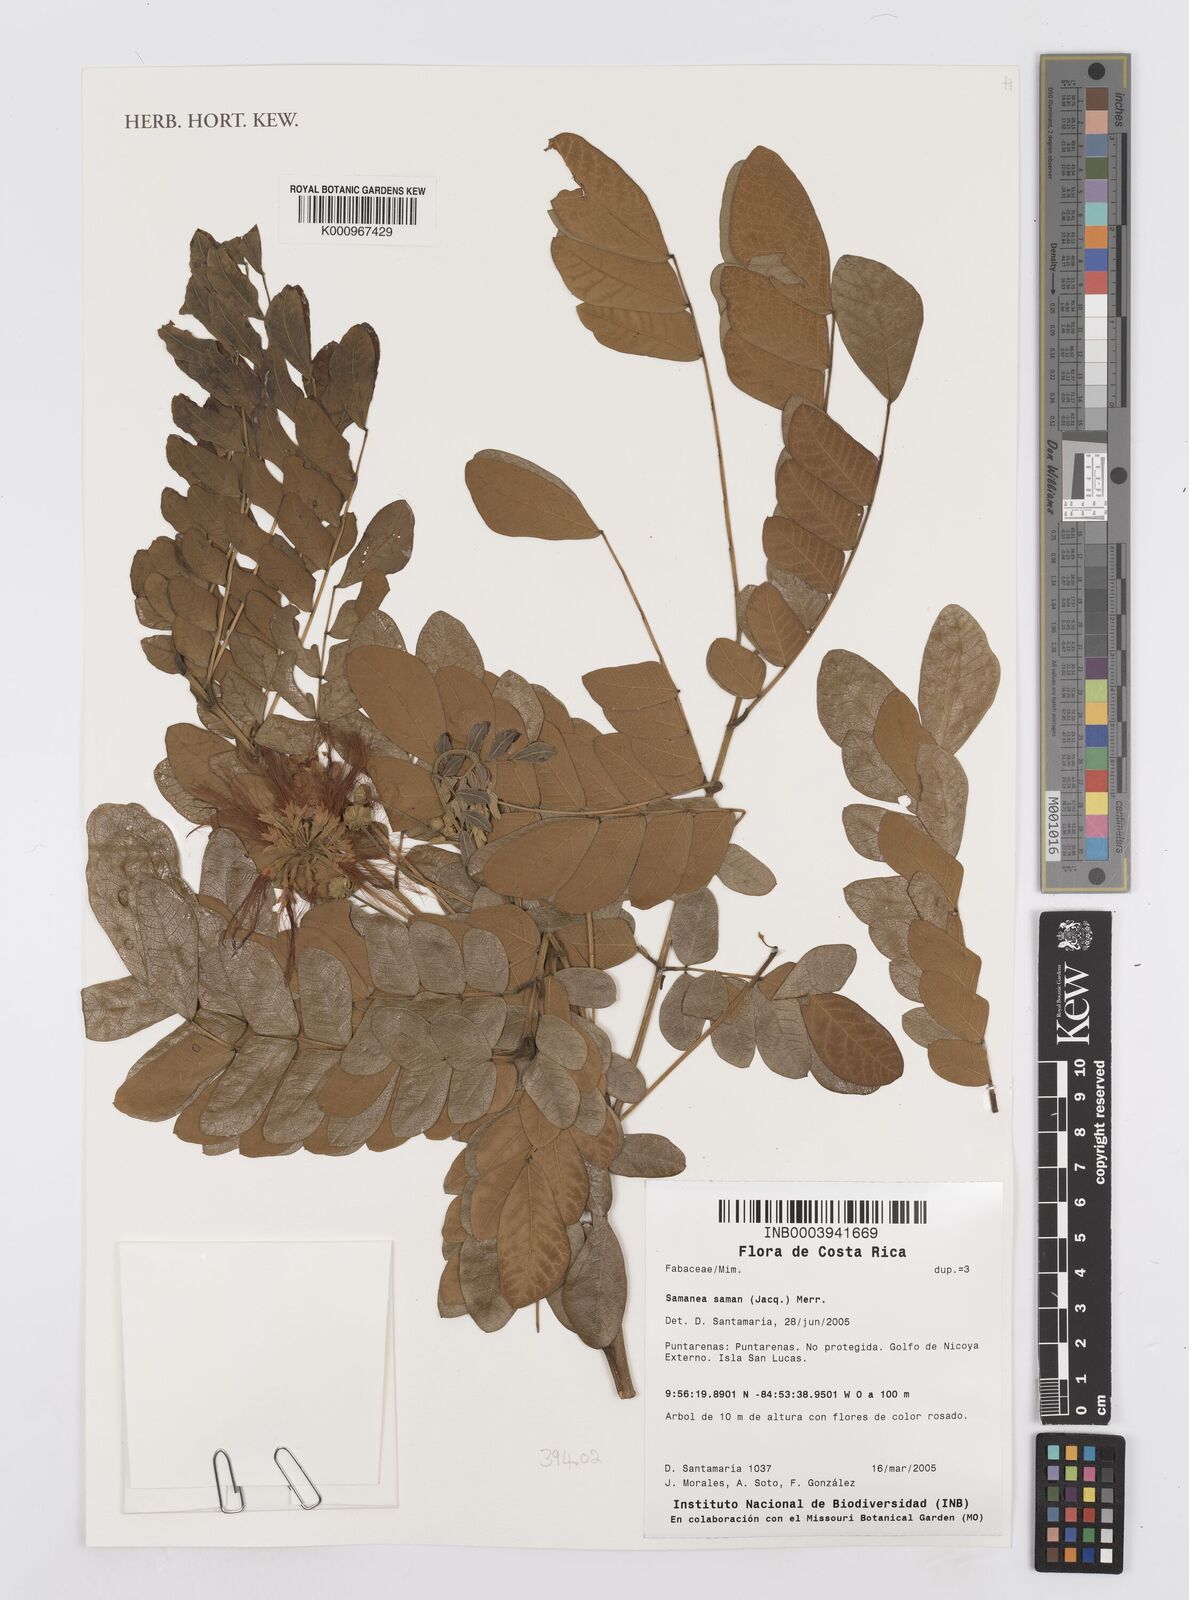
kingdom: Plantae
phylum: Tracheophyta
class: Magnoliopsida
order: Fabales
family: Fabaceae
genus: Samanea
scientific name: Samanea saman
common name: Raintree
